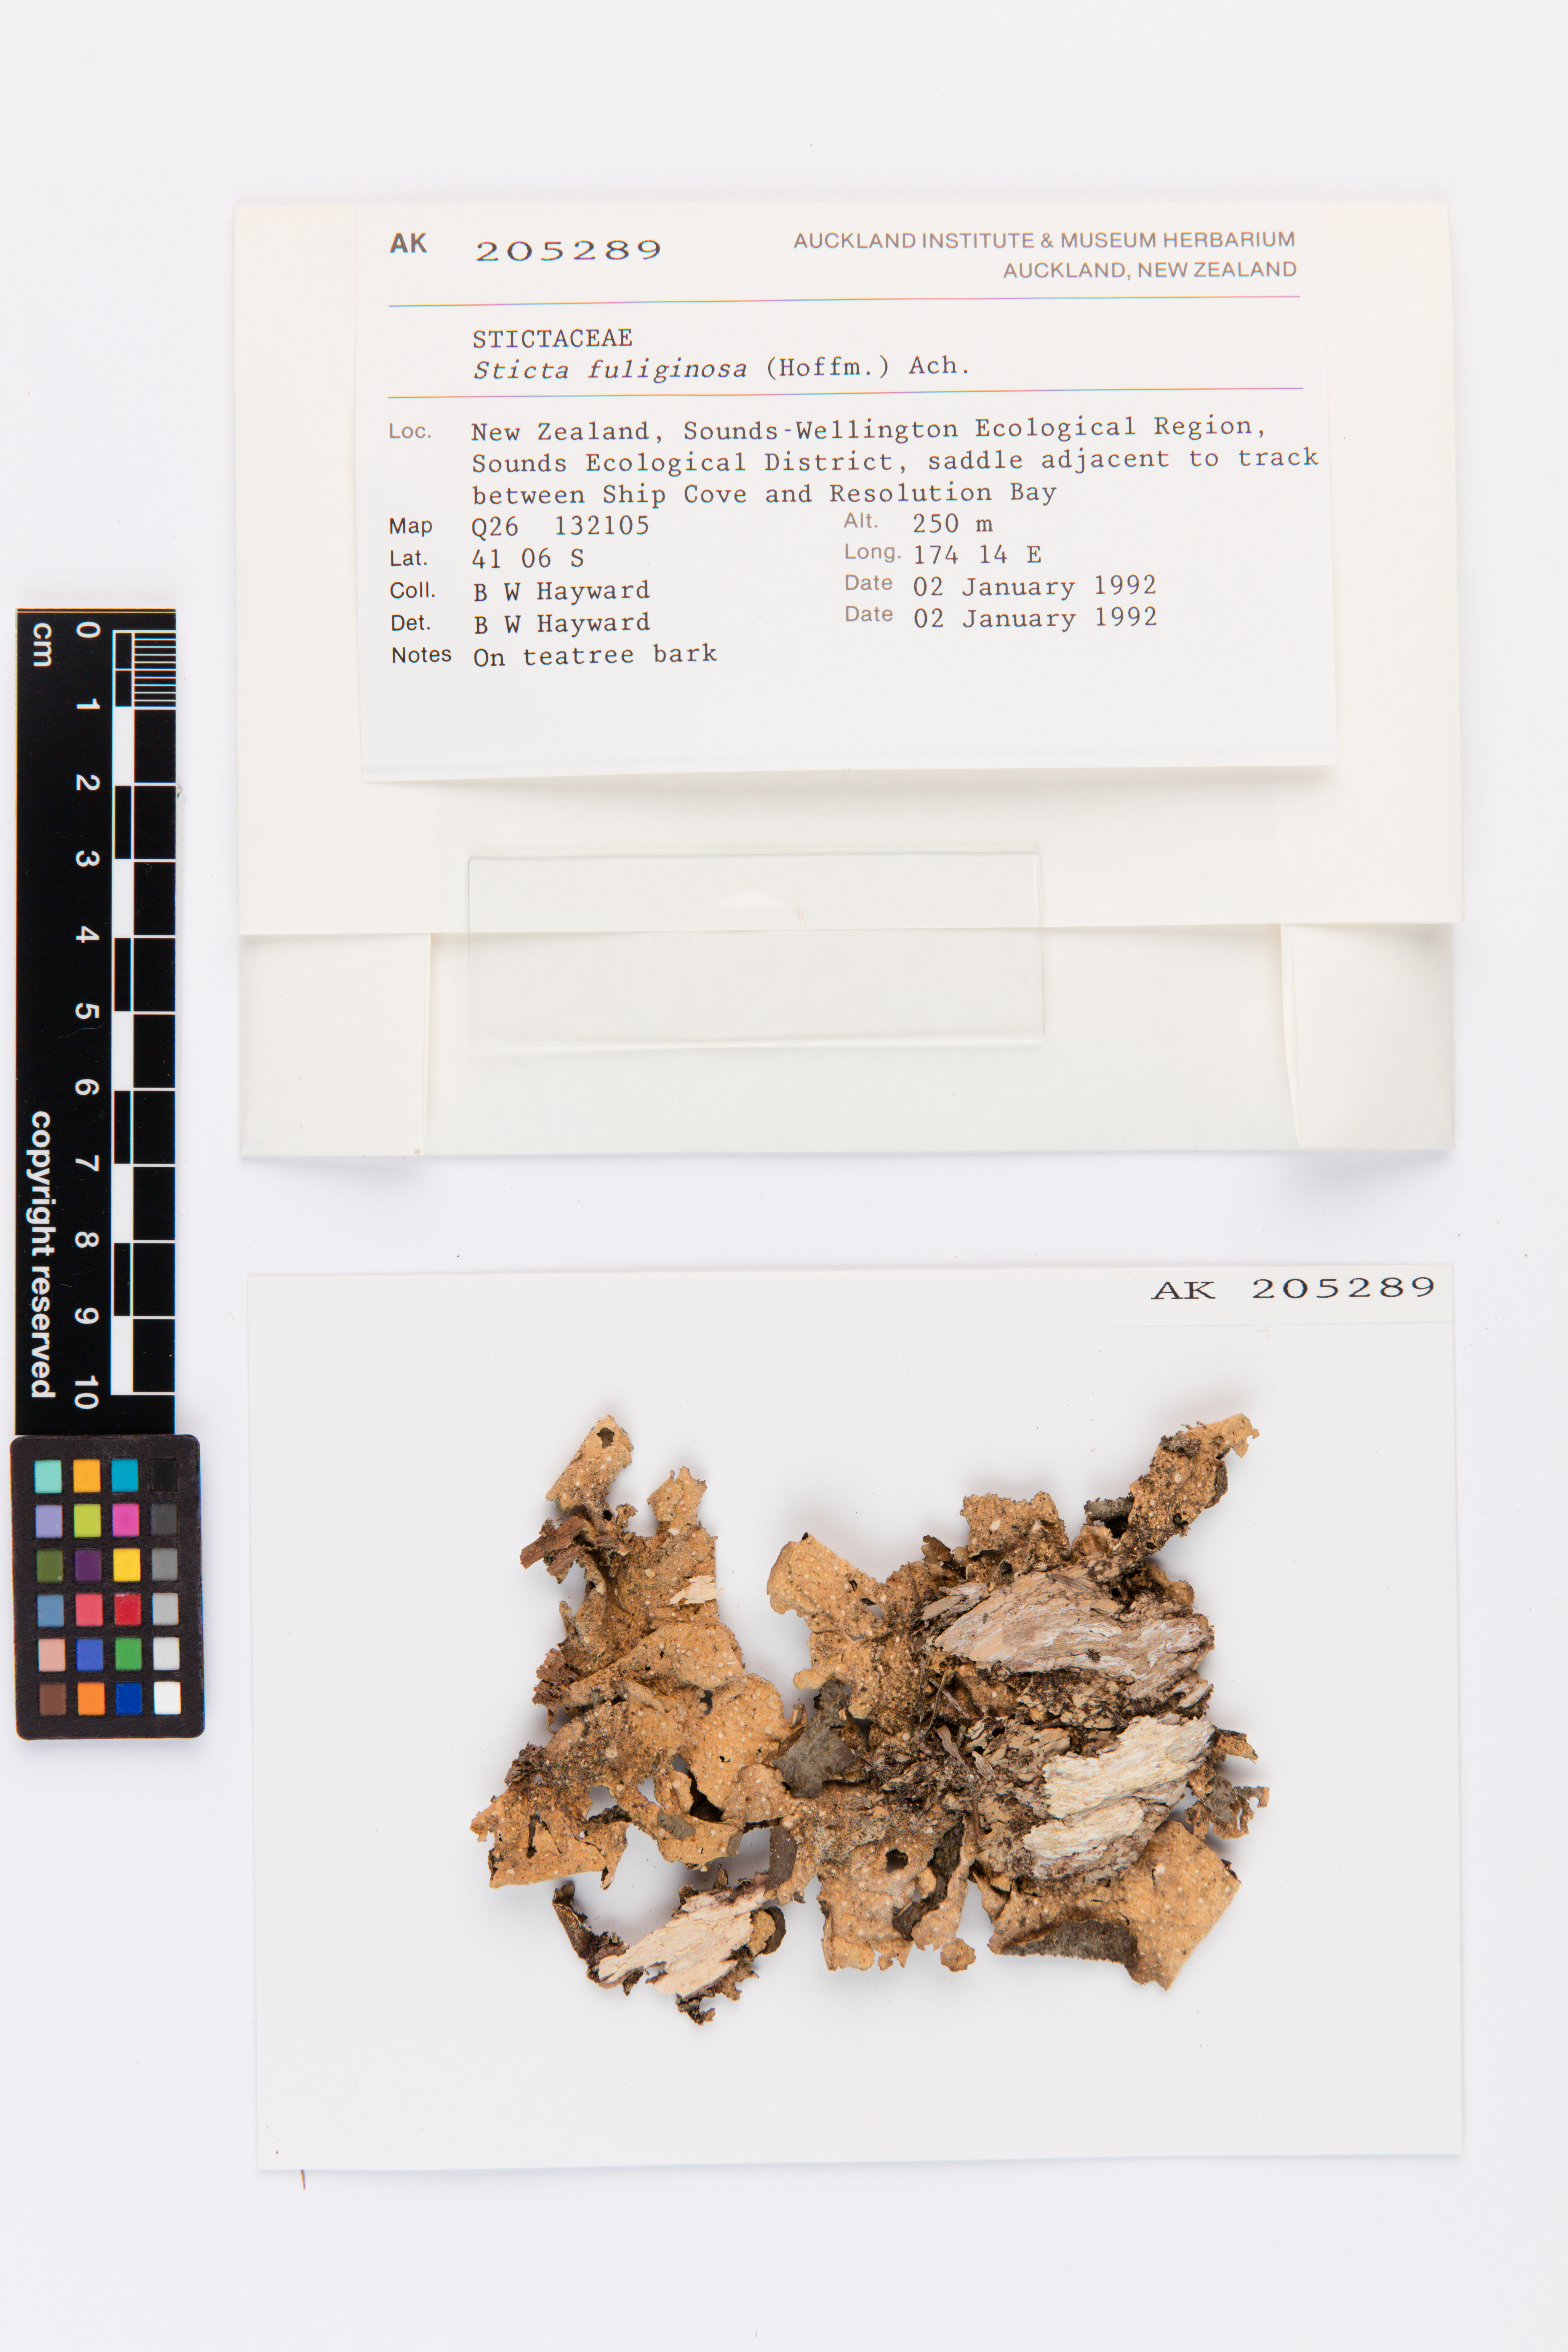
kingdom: Fungi
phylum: Ascomycota
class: Lecanoromycetes
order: Peltigerales
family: Lobariaceae
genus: Sticta
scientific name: Sticta fuliginosa
